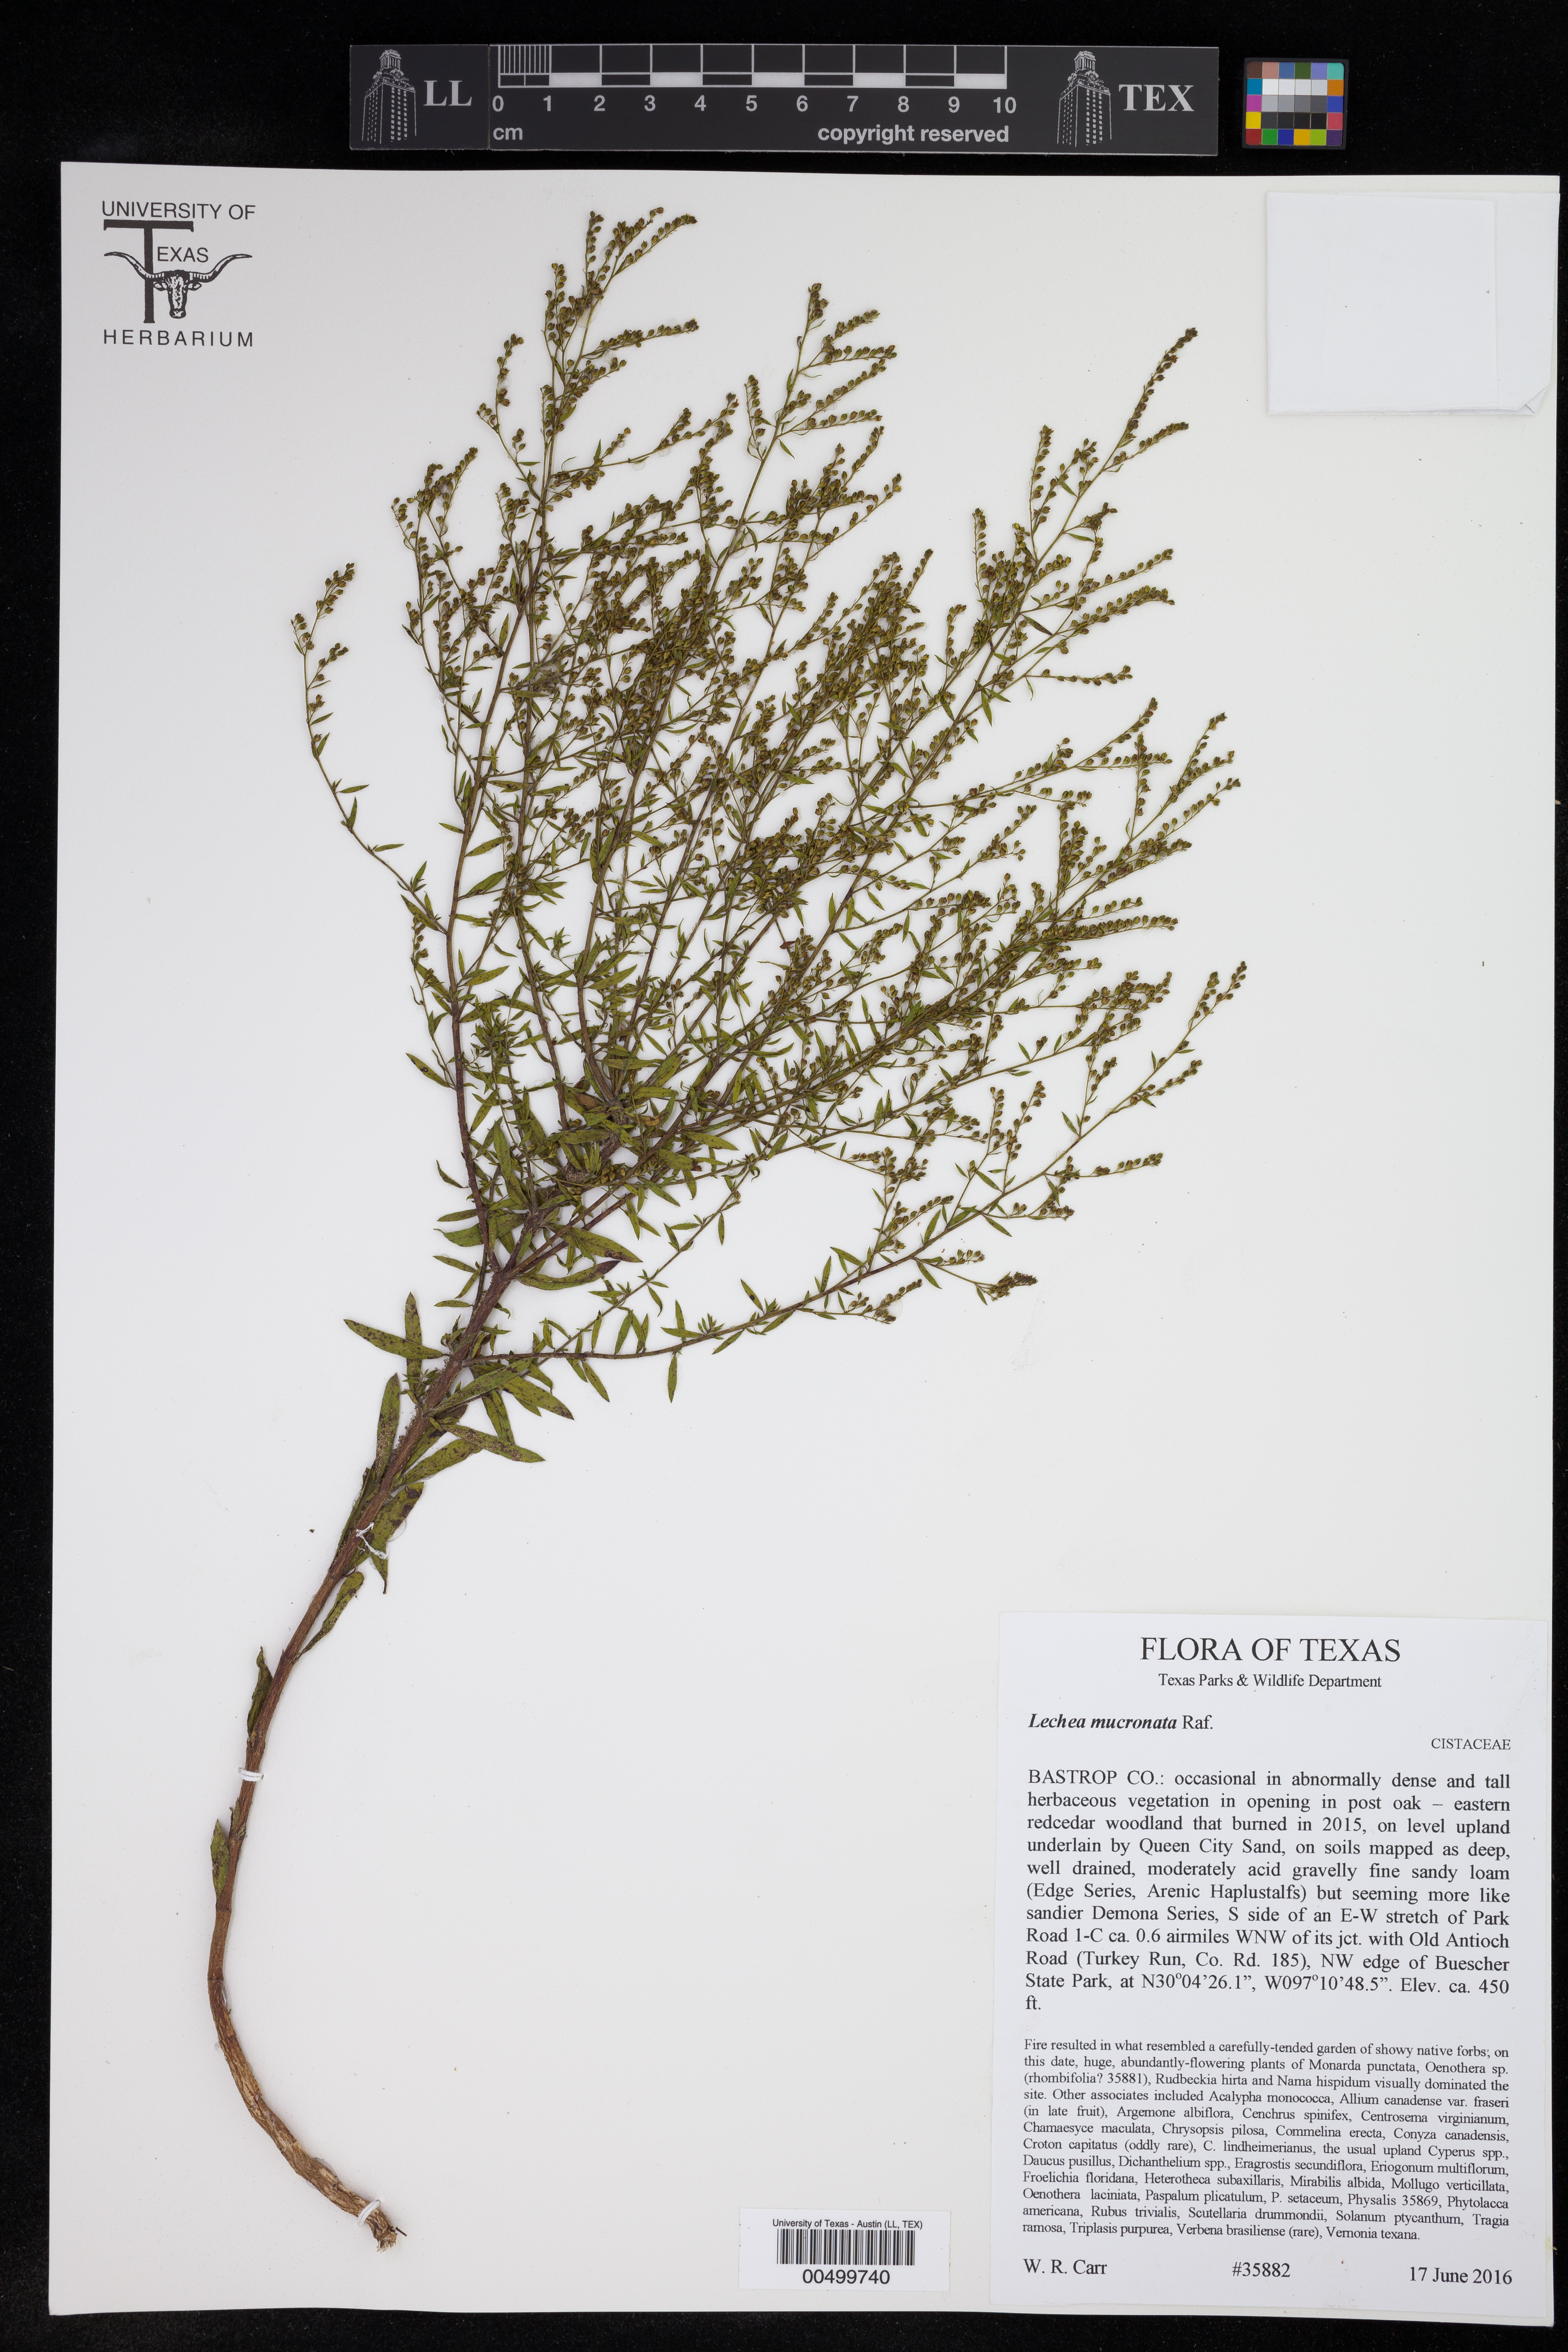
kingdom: Plantae
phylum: Tracheophyta
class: Magnoliopsida
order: Malvales
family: Cistaceae
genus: Lechea
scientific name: Lechea mucronata
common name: Hairy pinweed
